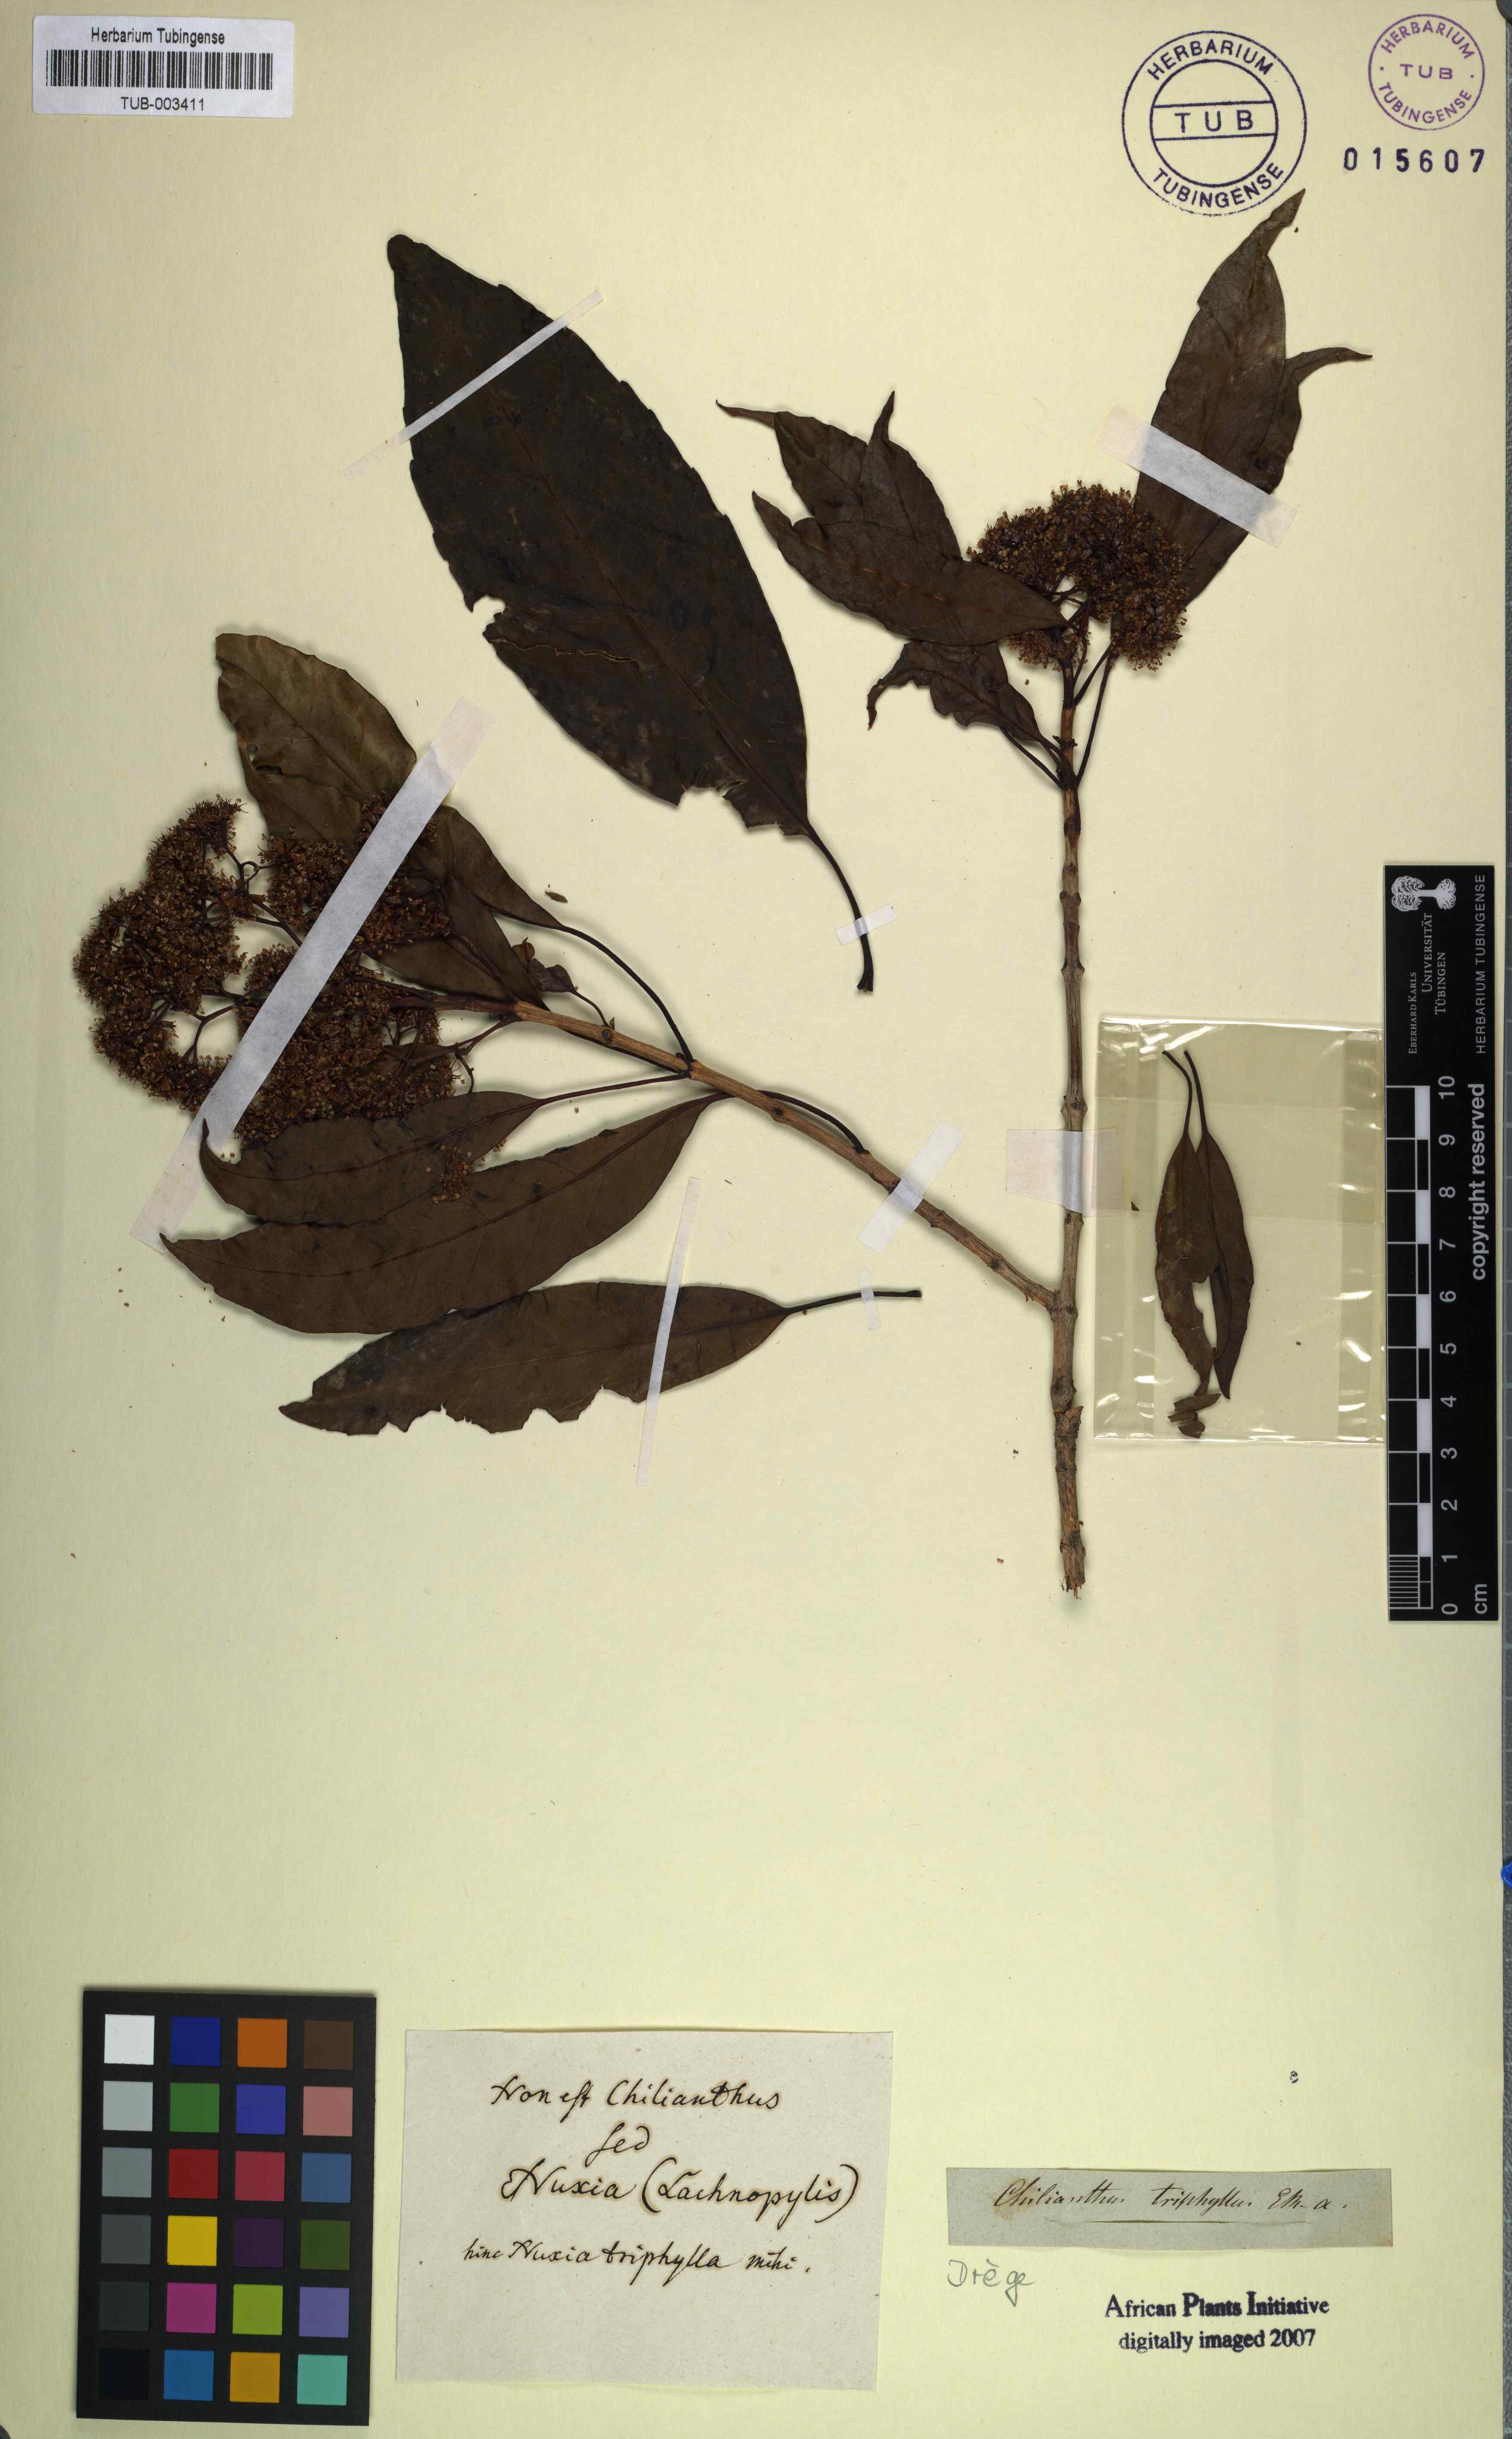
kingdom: Plantae
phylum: Tracheophyta
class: Magnoliopsida
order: Lamiales
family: Stilbaceae
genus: Nuxia
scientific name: Nuxia floribunda
